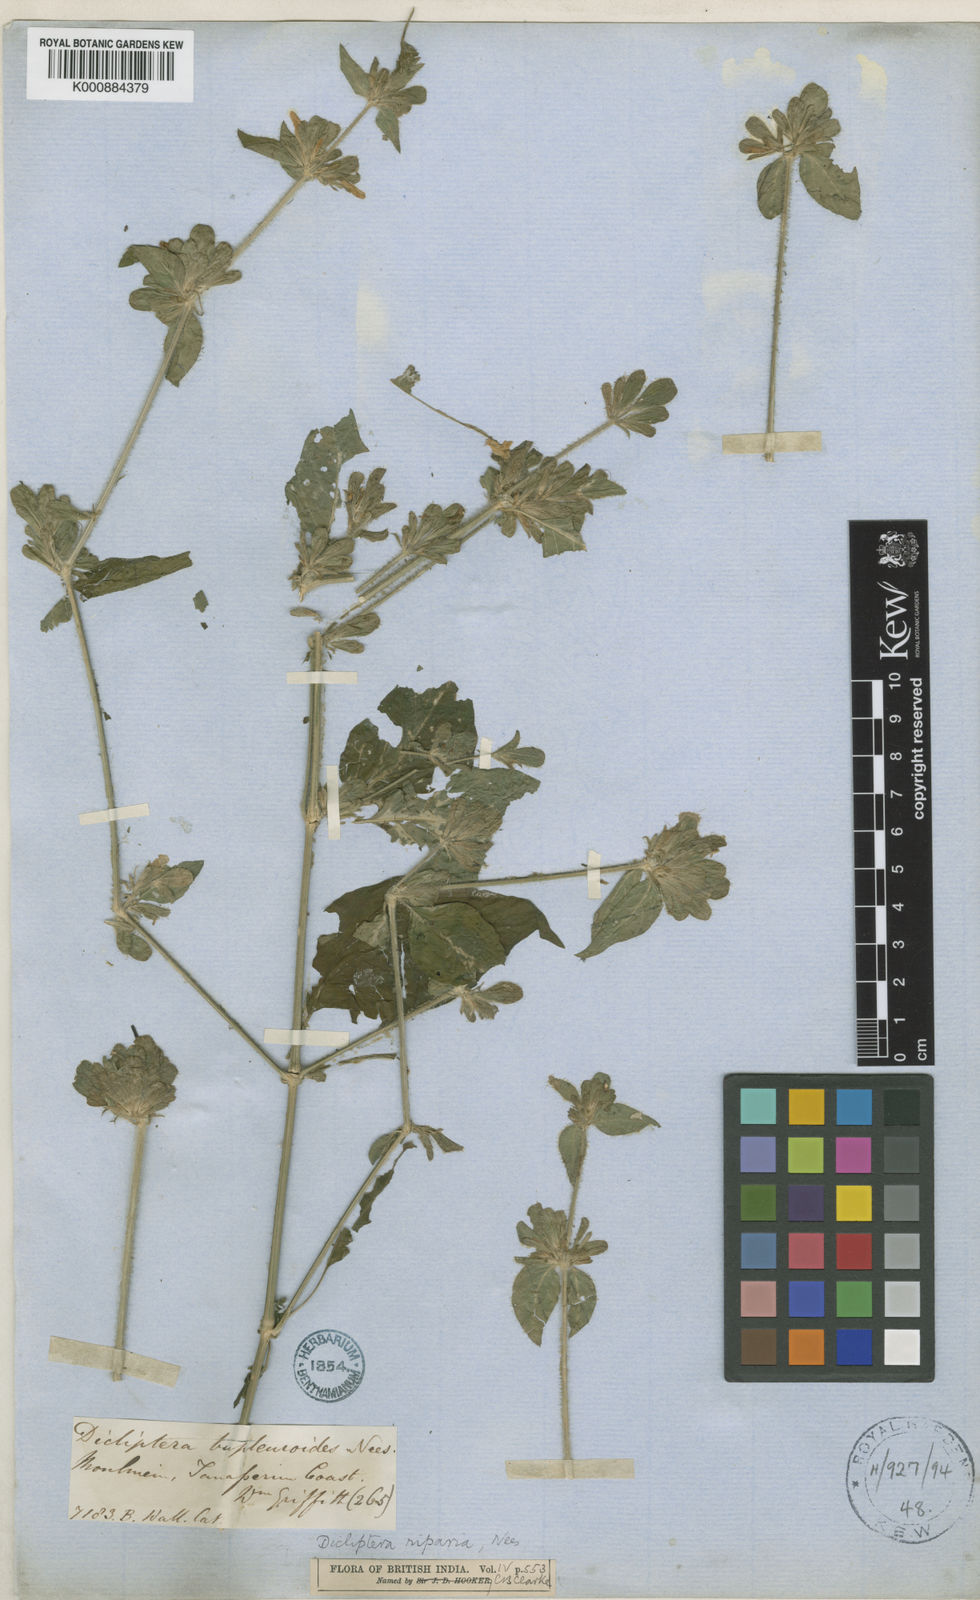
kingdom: Plantae
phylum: Tracheophyta
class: Magnoliopsida
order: Lamiales
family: Acanthaceae
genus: Dicliptera
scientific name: Dicliptera riparia
